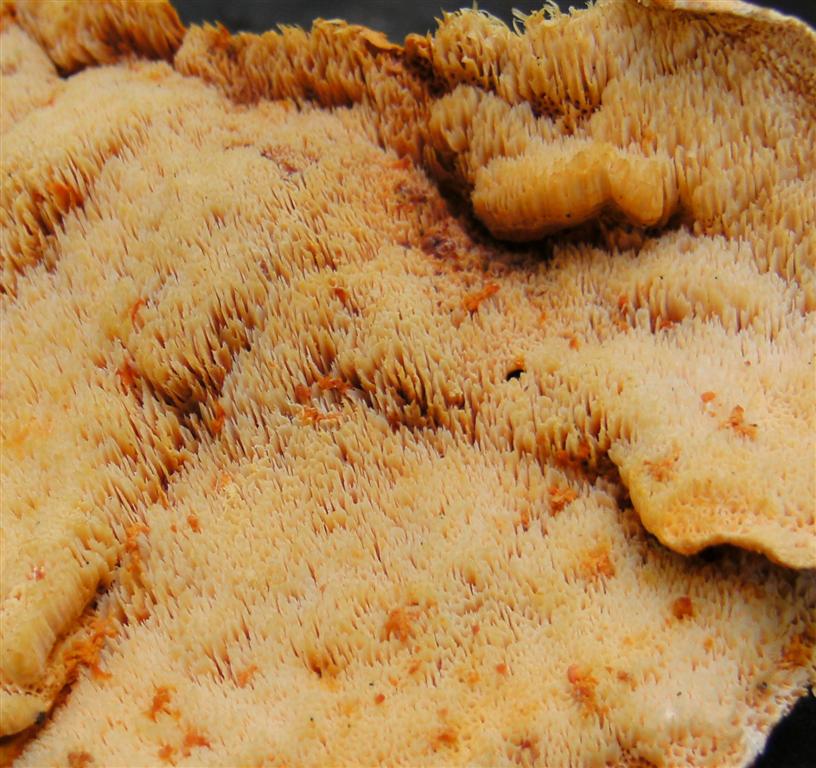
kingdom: Fungi
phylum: Basidiomycota
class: Agaricomycetes
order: Polyporales
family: Pycnoporellaceae
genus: Pycnoporellus
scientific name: Pycnoporellus fulgens
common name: flammeporesvamp
